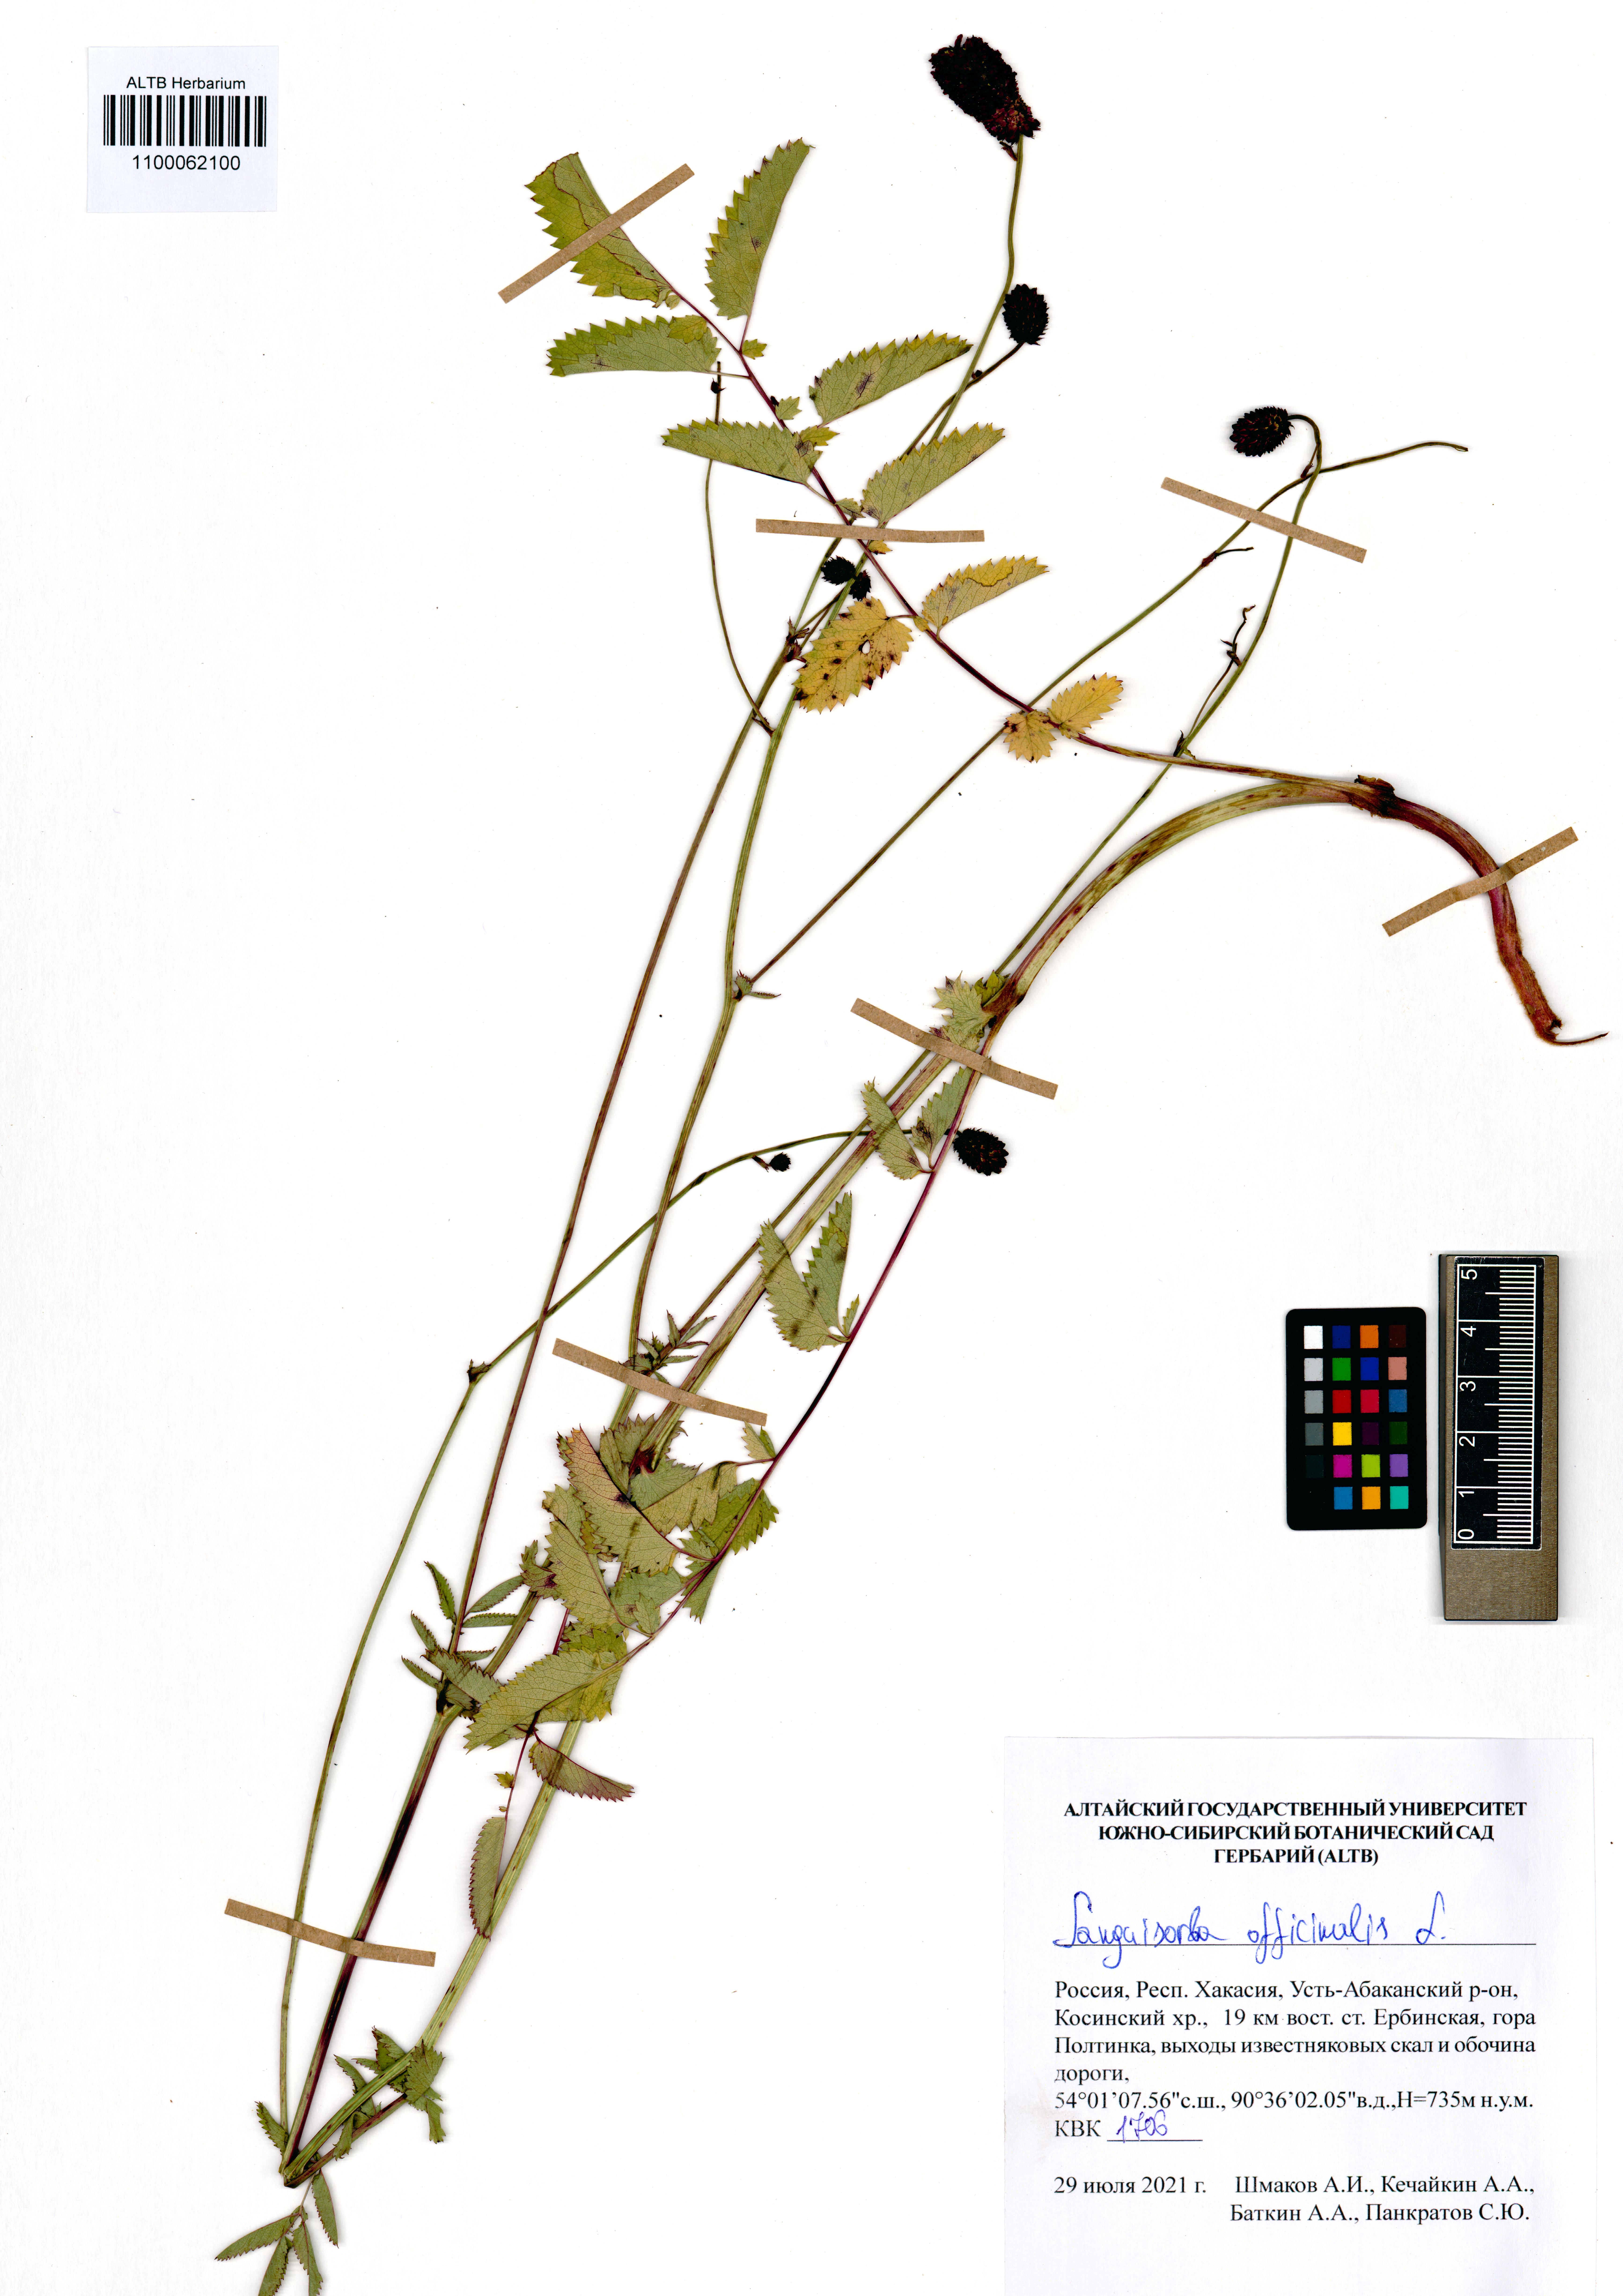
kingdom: Plantae
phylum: Tracheophyta
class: Magnoliopsida
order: Rosales
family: Rosaceae
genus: Sanguisorba
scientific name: Sanguisorba officinalis
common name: Great burnet
